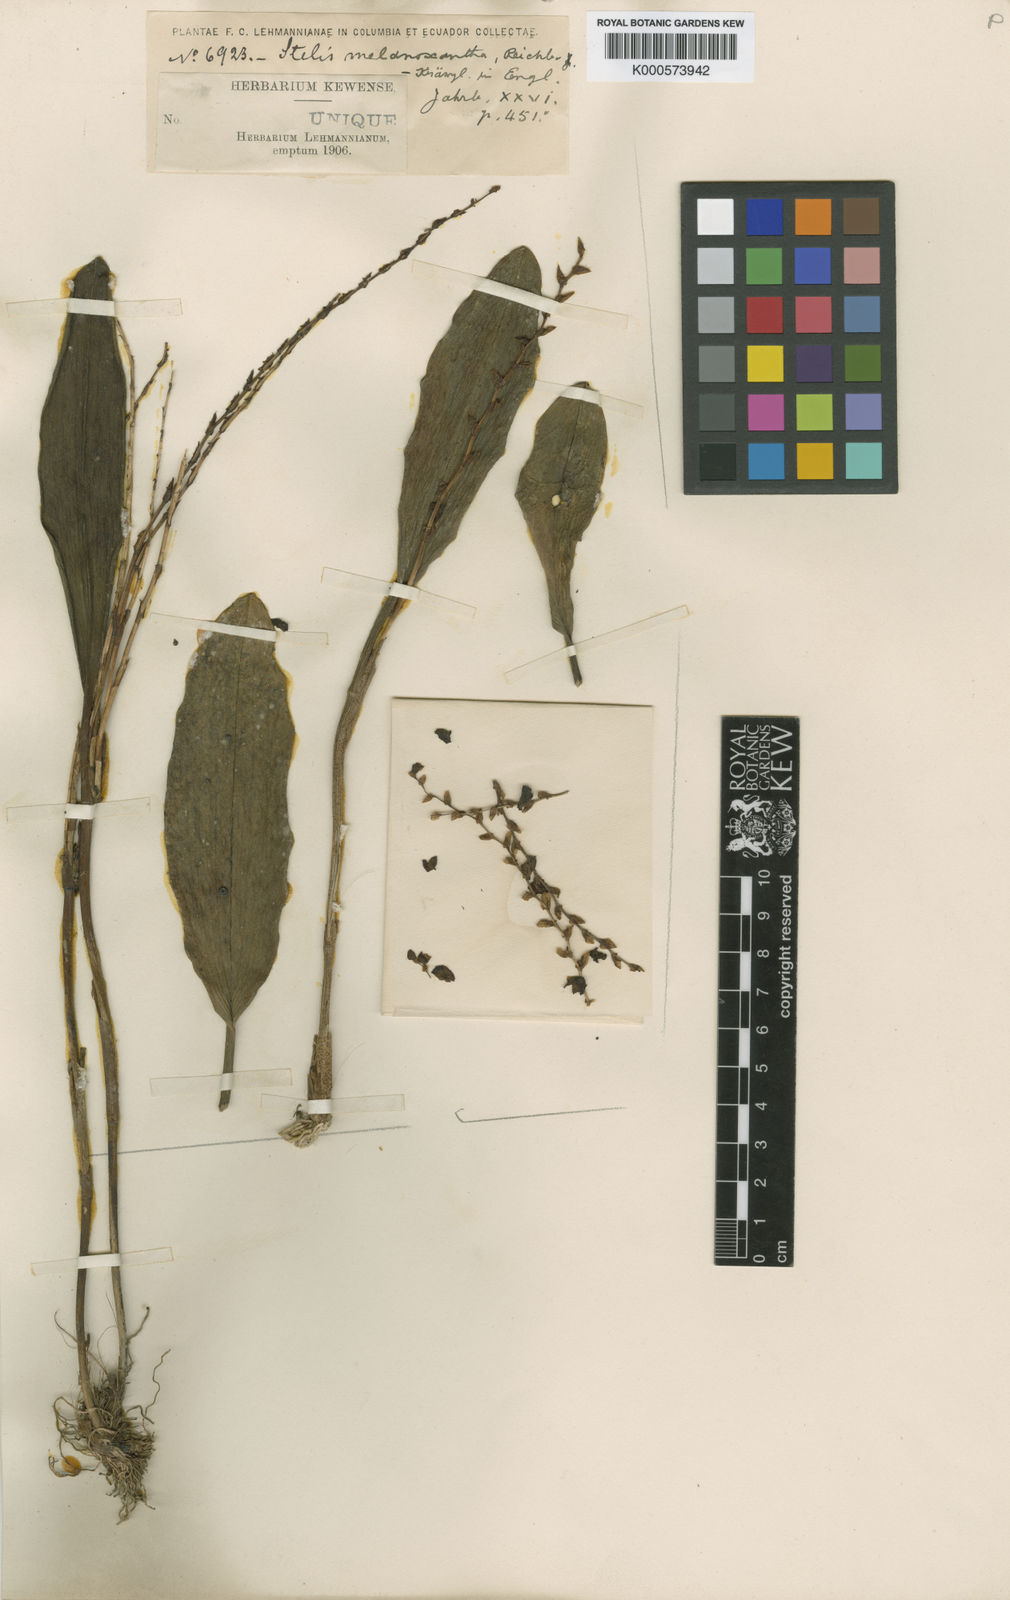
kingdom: Plantae
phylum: Tracheophyta
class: Liliopsida
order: Asparagales
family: Orchidaceae
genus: Stelis
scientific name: Stelis melanoxantha
